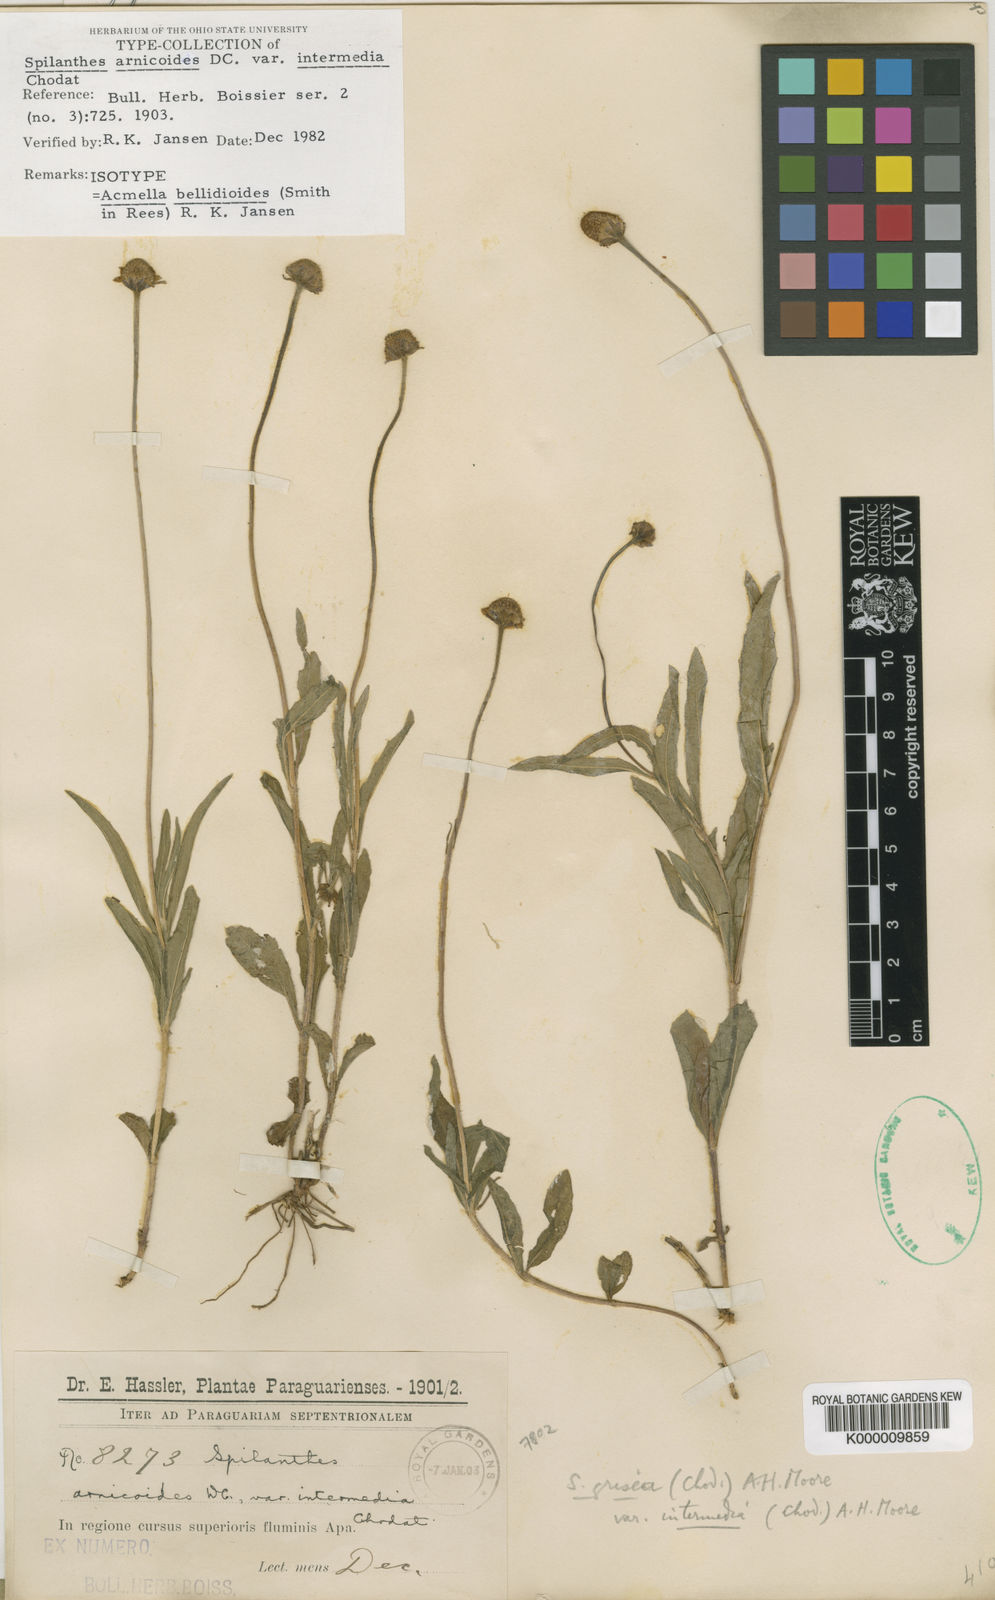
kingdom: Plantae
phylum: Tracheophyta
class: Magnoliopsida
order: Asterales
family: Asteraceae
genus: Acmella
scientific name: Acmella bellidioides
